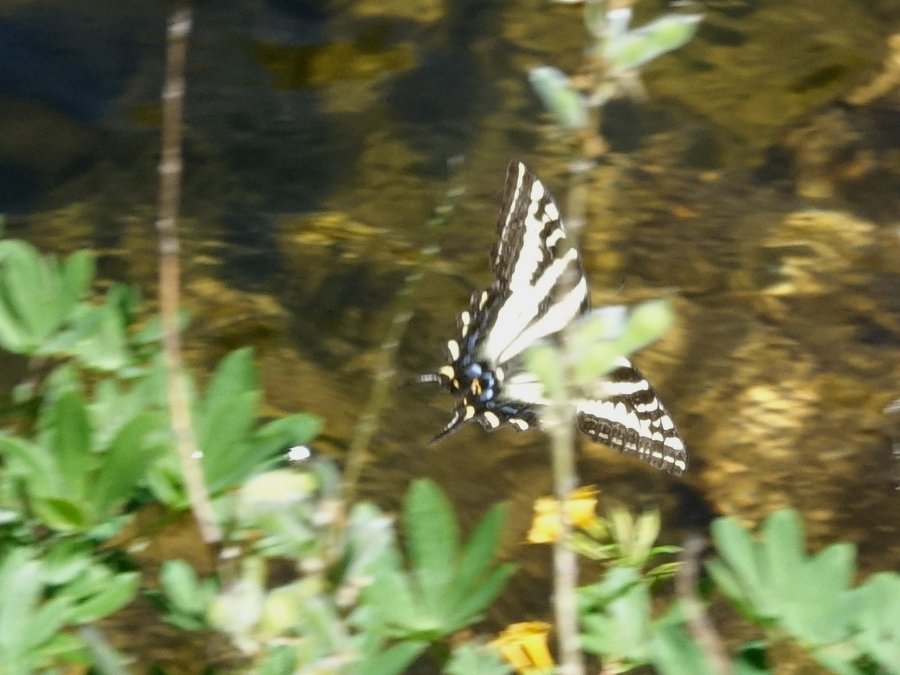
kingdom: Animalia
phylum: Arthropoda
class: Insecta
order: Lepidoptera
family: Papilionidae
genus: Pterourus
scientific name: Pterourus eurymedon
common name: Pale Swallowtail
